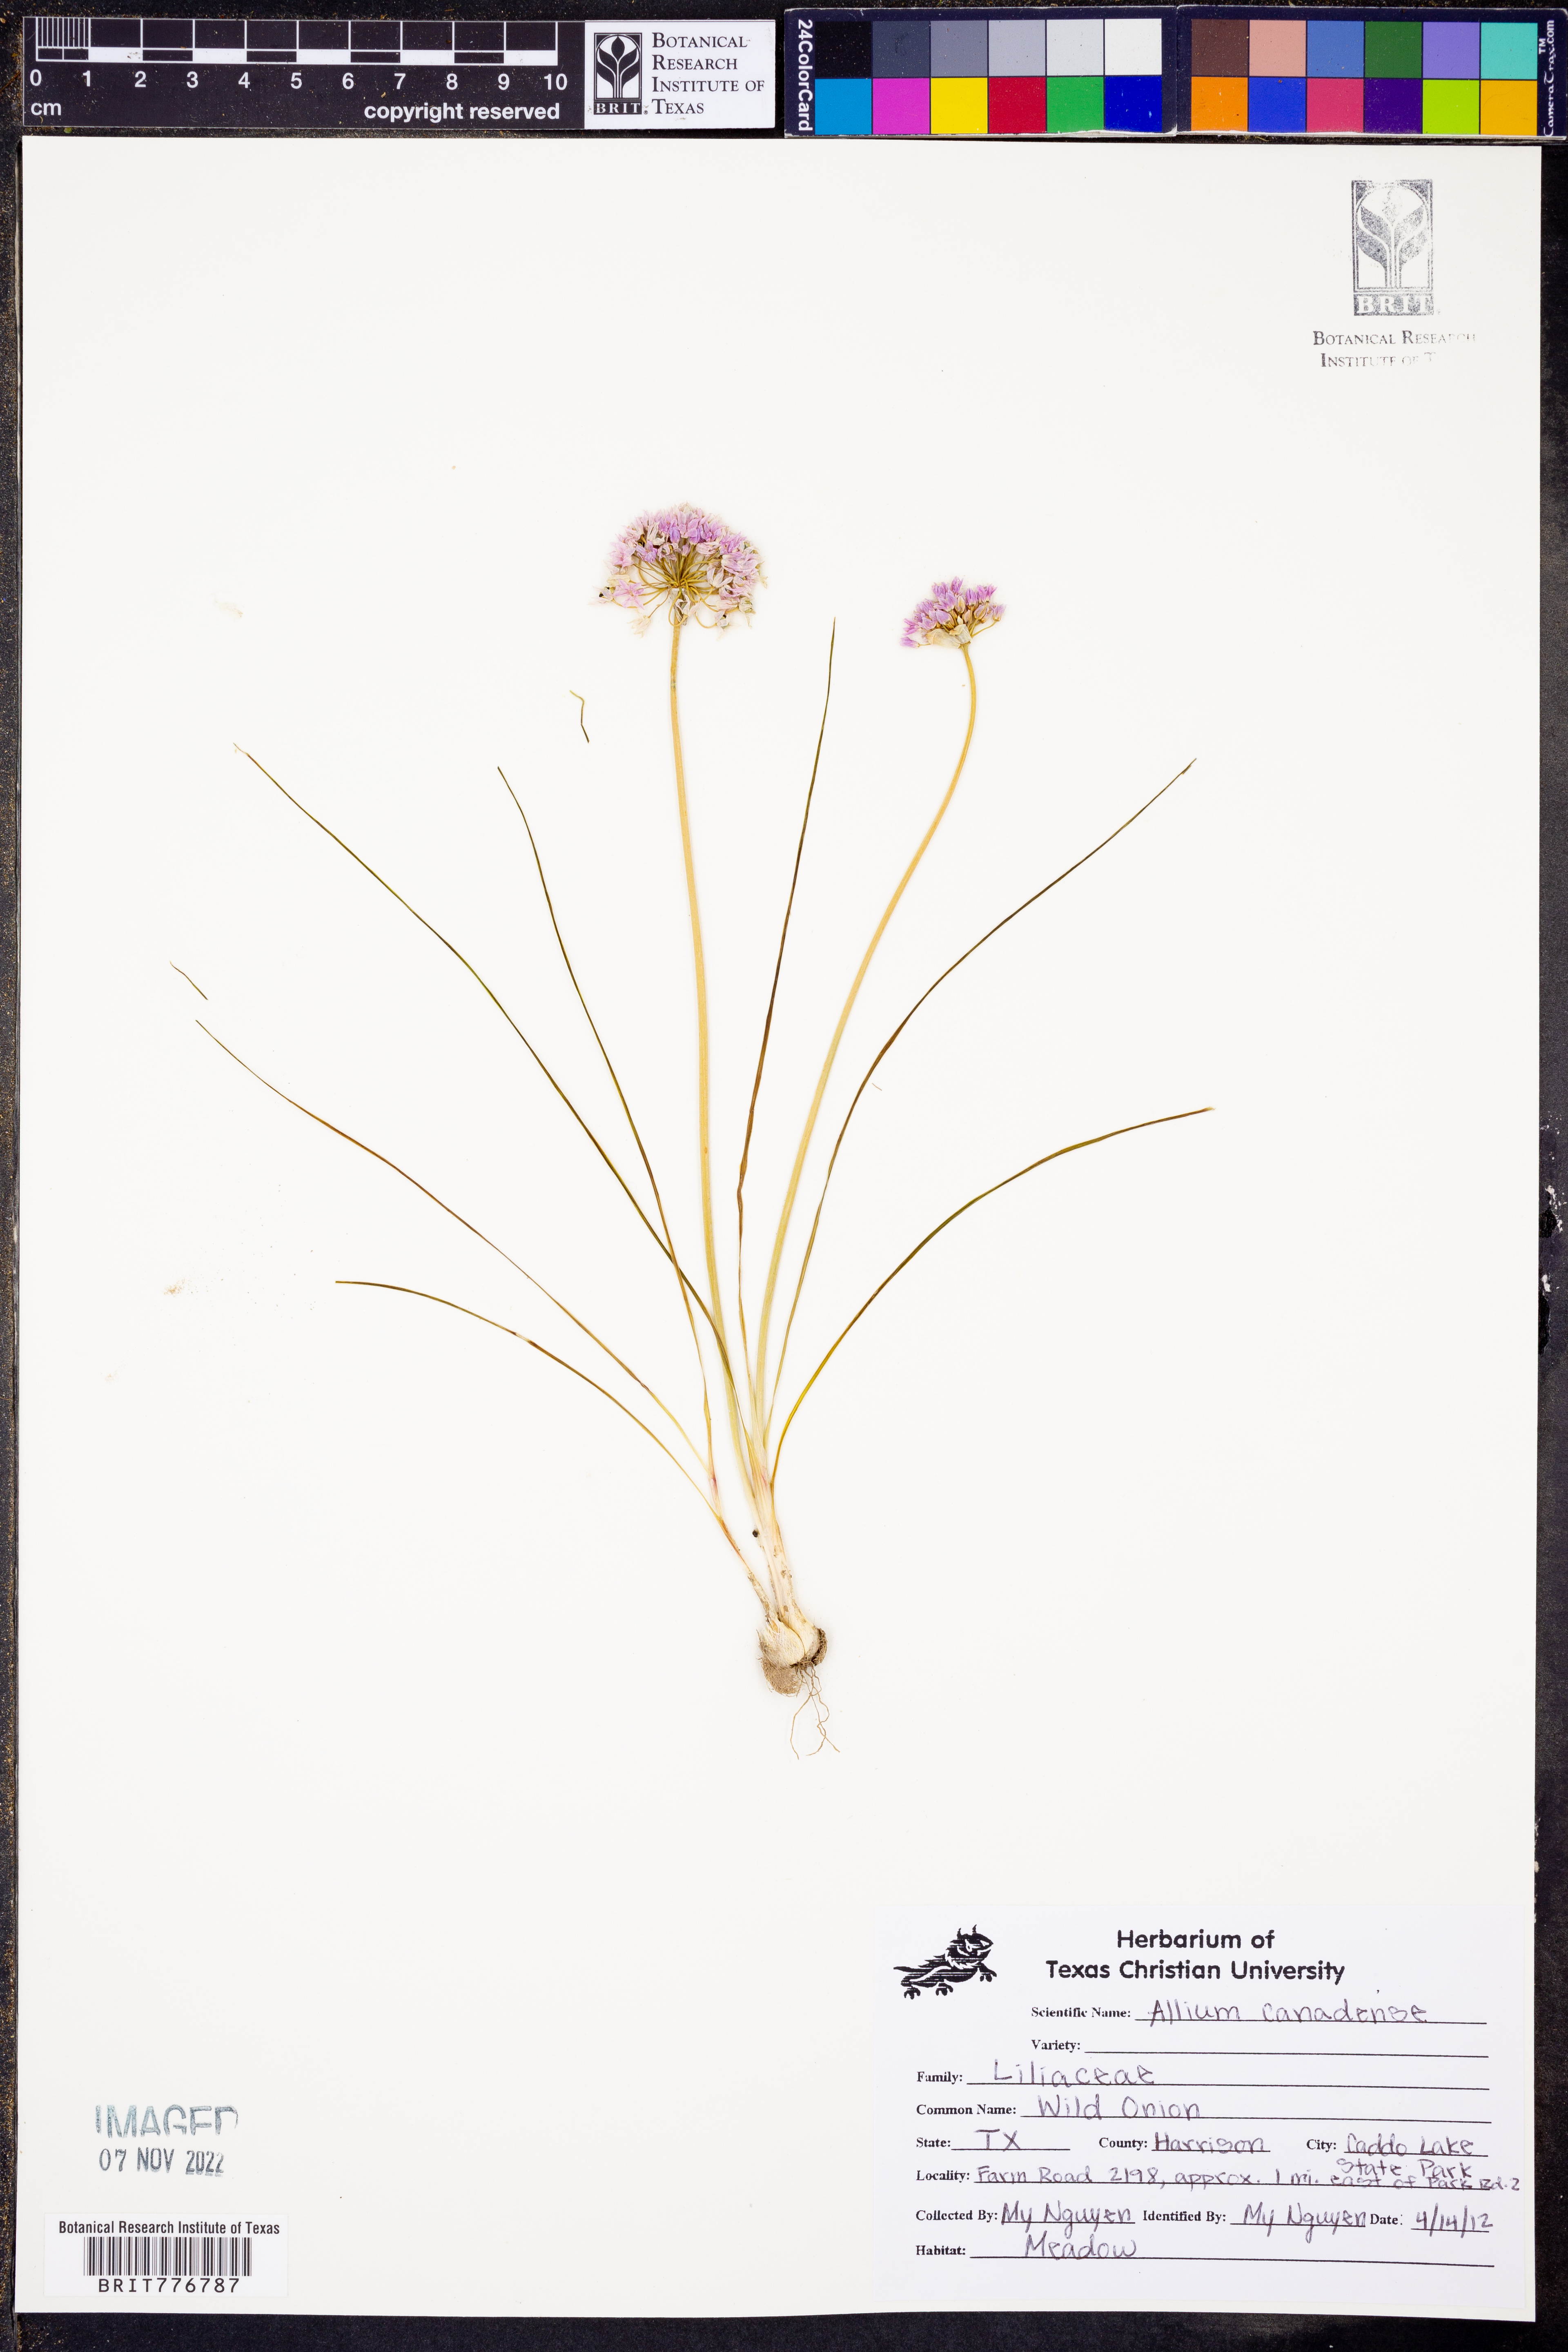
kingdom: Plantae
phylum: Tracheophyta
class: Liliopsida
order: Asparagales
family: Amaryllidaceae
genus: Allium
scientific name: Allium canadense
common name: Meadow garlic
